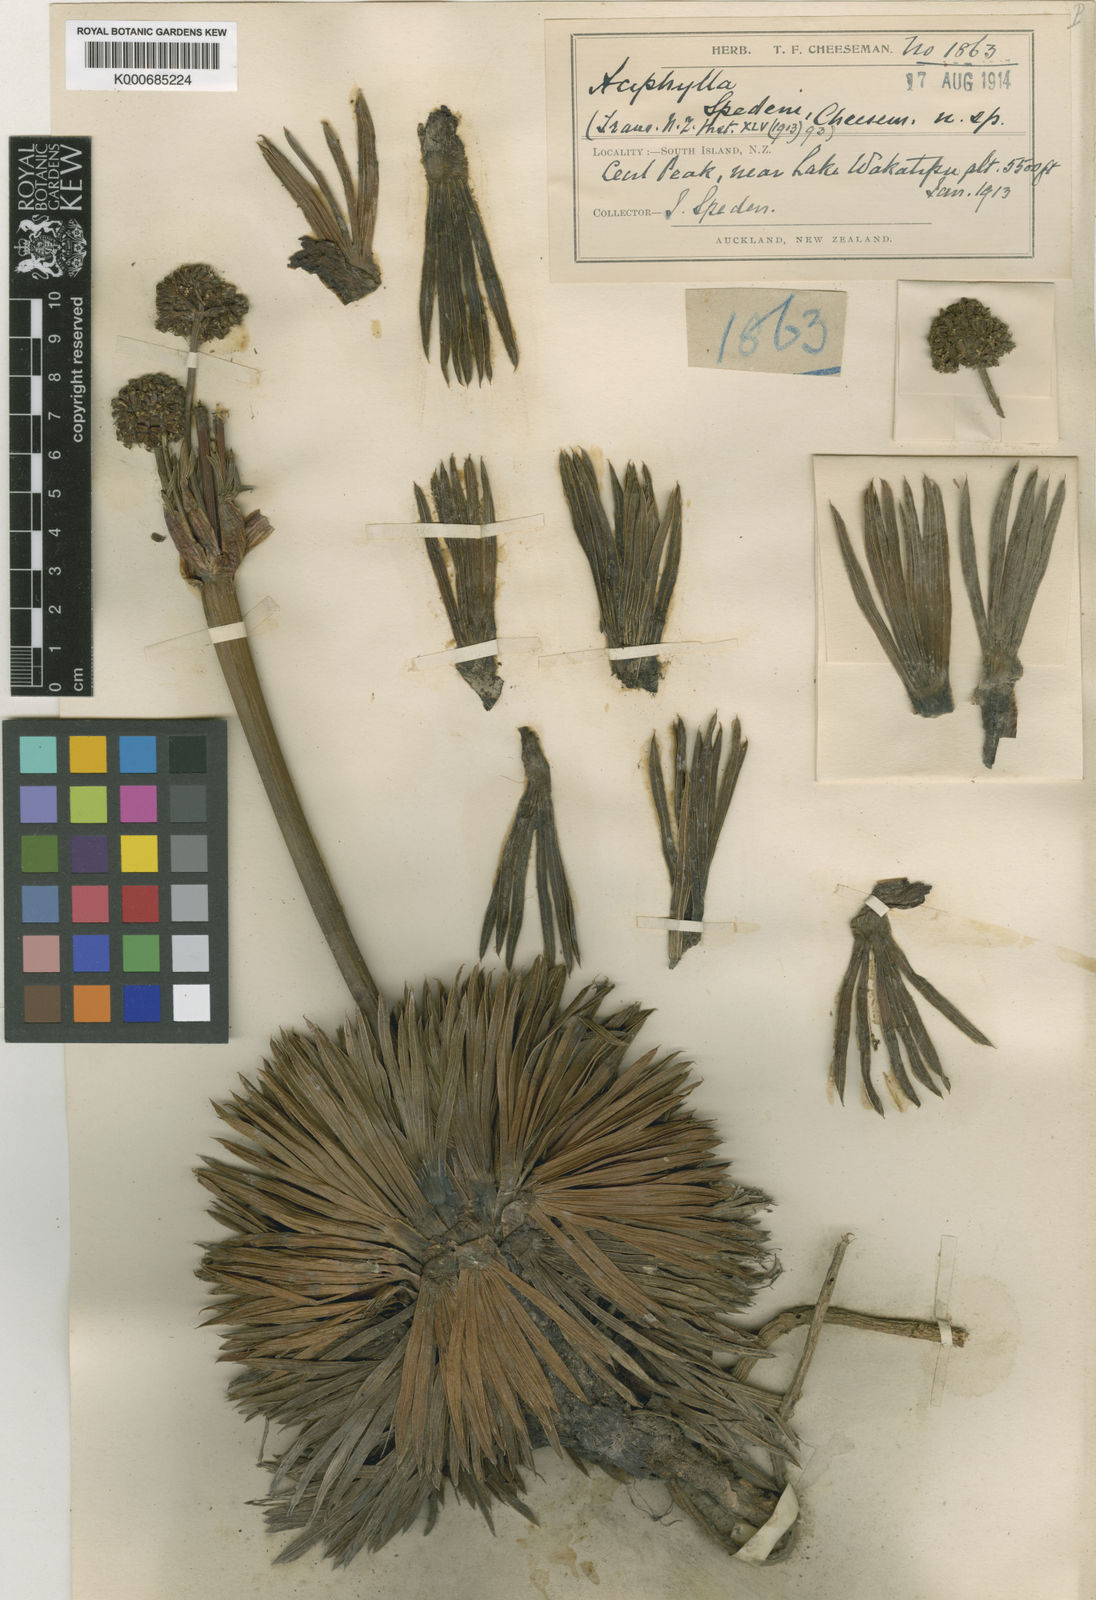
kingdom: Plantae
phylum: Tracheophyta
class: Magnoliopsida
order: Apiales
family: Apiaceae
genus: Aciphylla
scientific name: Aciphylla spedenii
